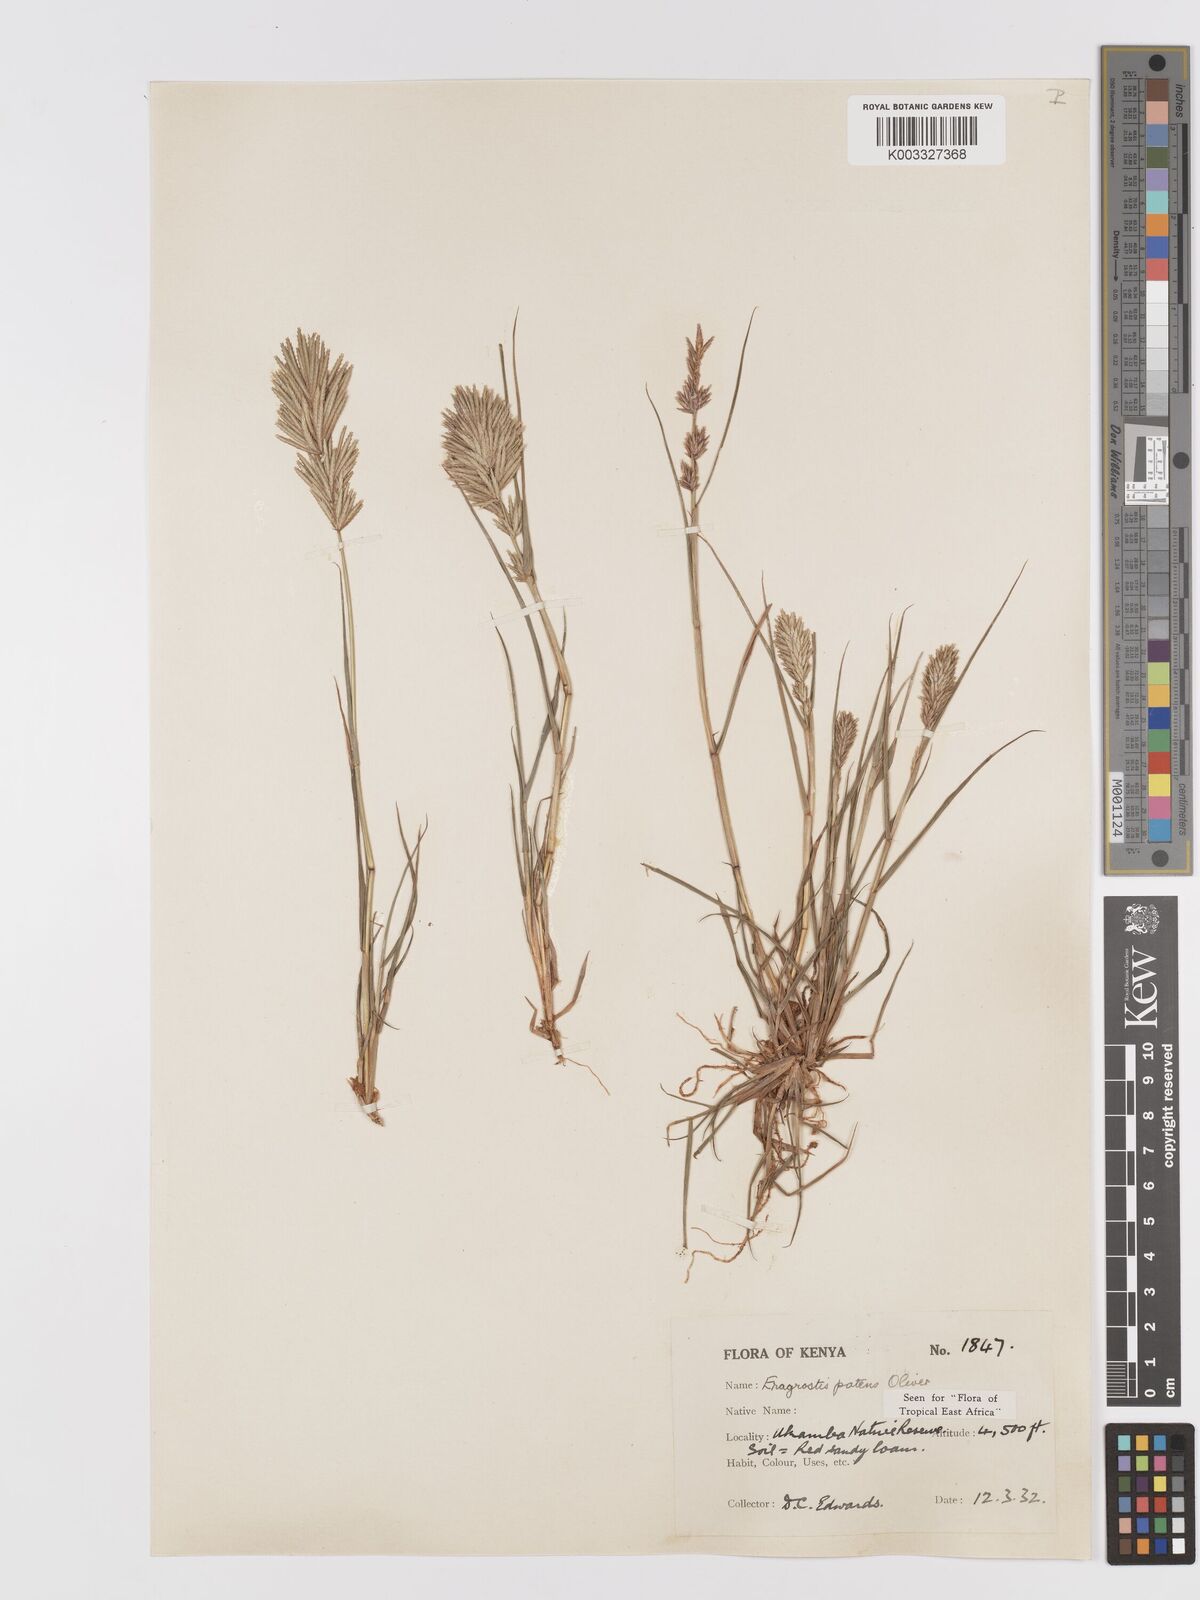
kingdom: Plantae
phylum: Tracheophyta
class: Liliopsida
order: Poales
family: Poaceae
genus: Eragrostis
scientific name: Eragrostis patens
